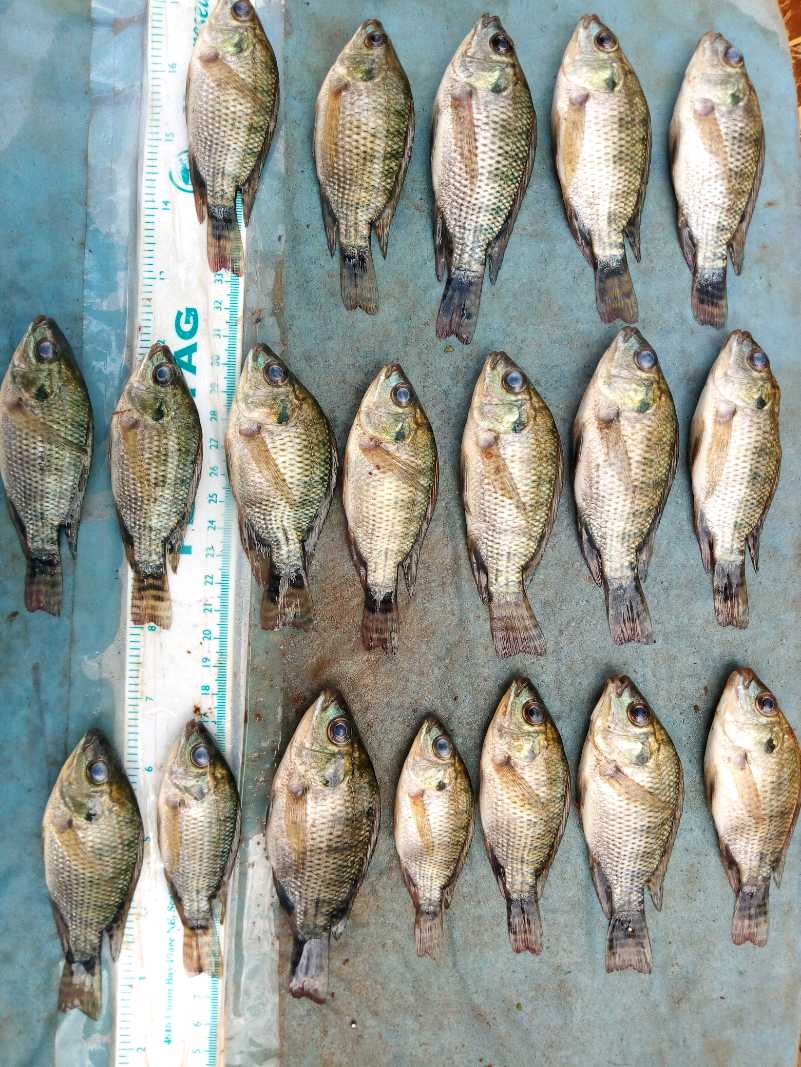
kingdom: Animalia
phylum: Chordata
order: Perciformes
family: Cichlidae
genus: Oreochromis
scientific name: Oreochromis niloticus
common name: Nile tilapia
